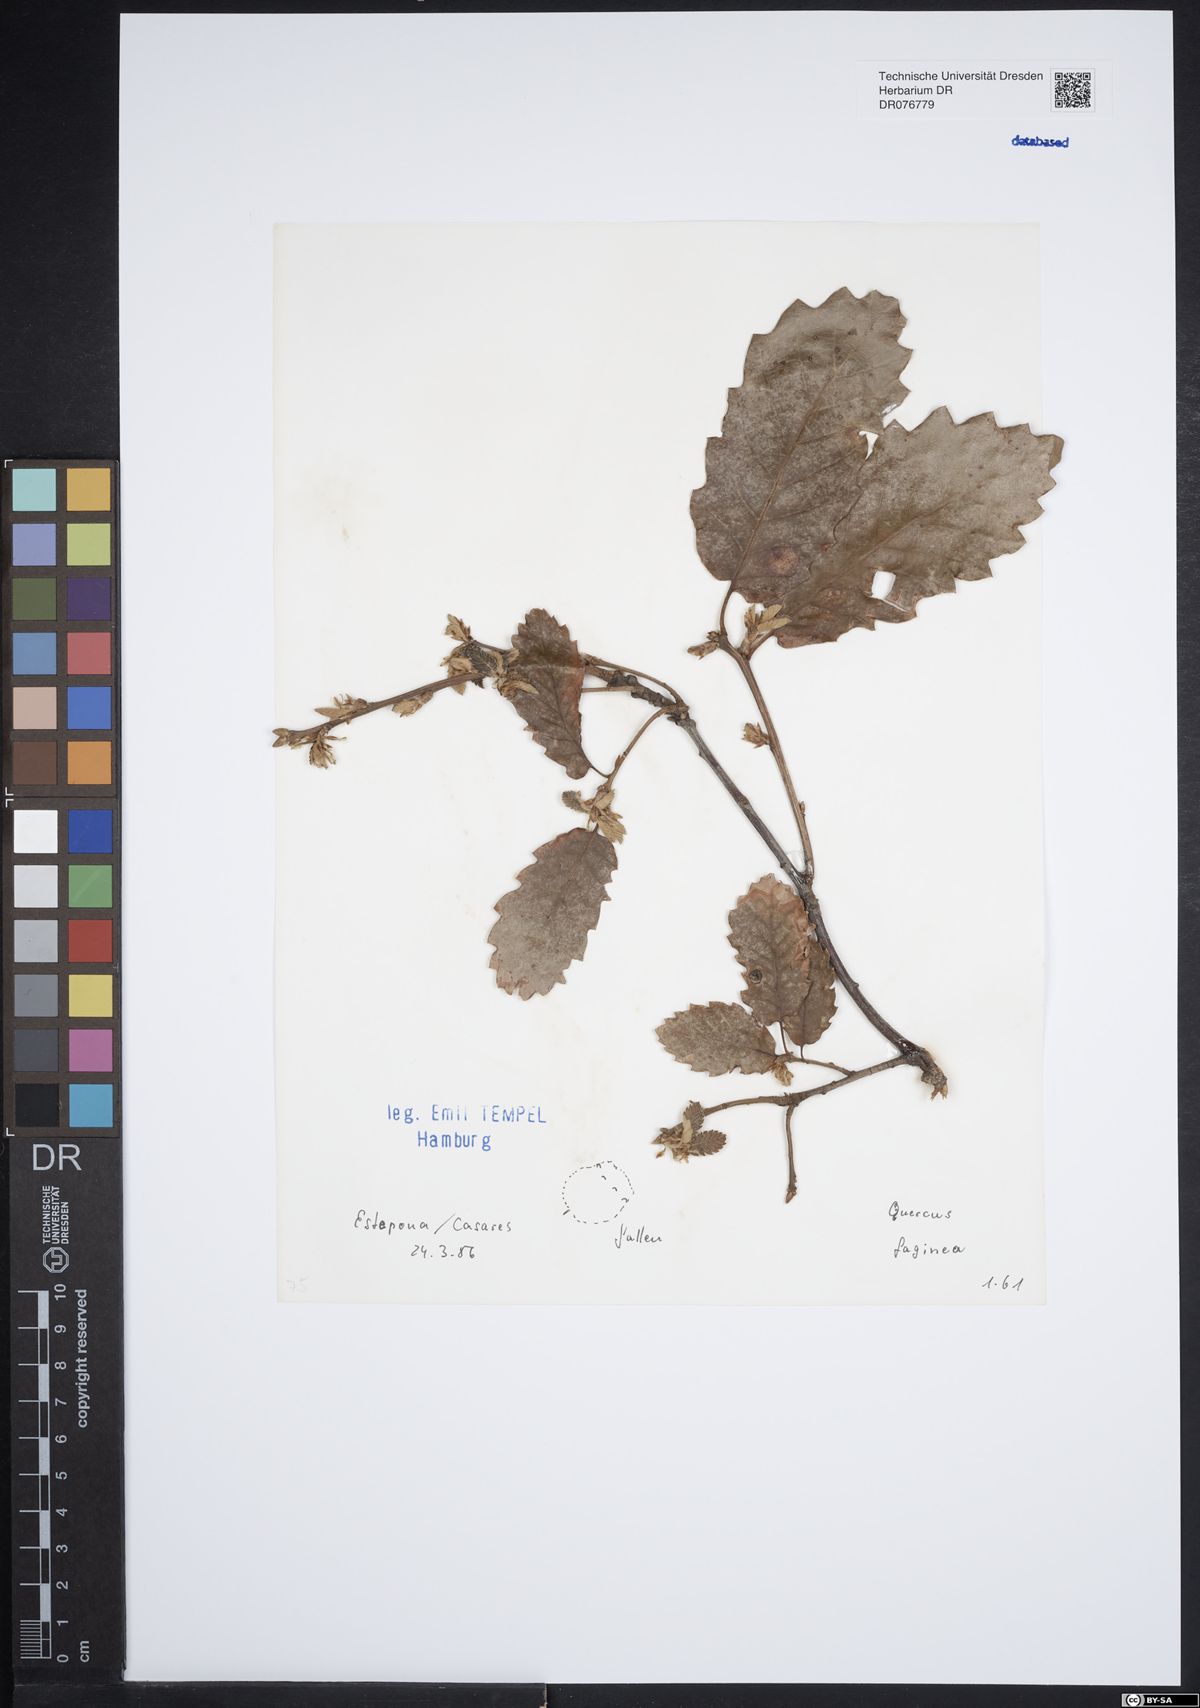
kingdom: Plantae
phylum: Tracheophyta
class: Magnoliopsida
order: Fagales
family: Fagaceae
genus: Quercus
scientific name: Quercus faginea
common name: Gall oak tree
